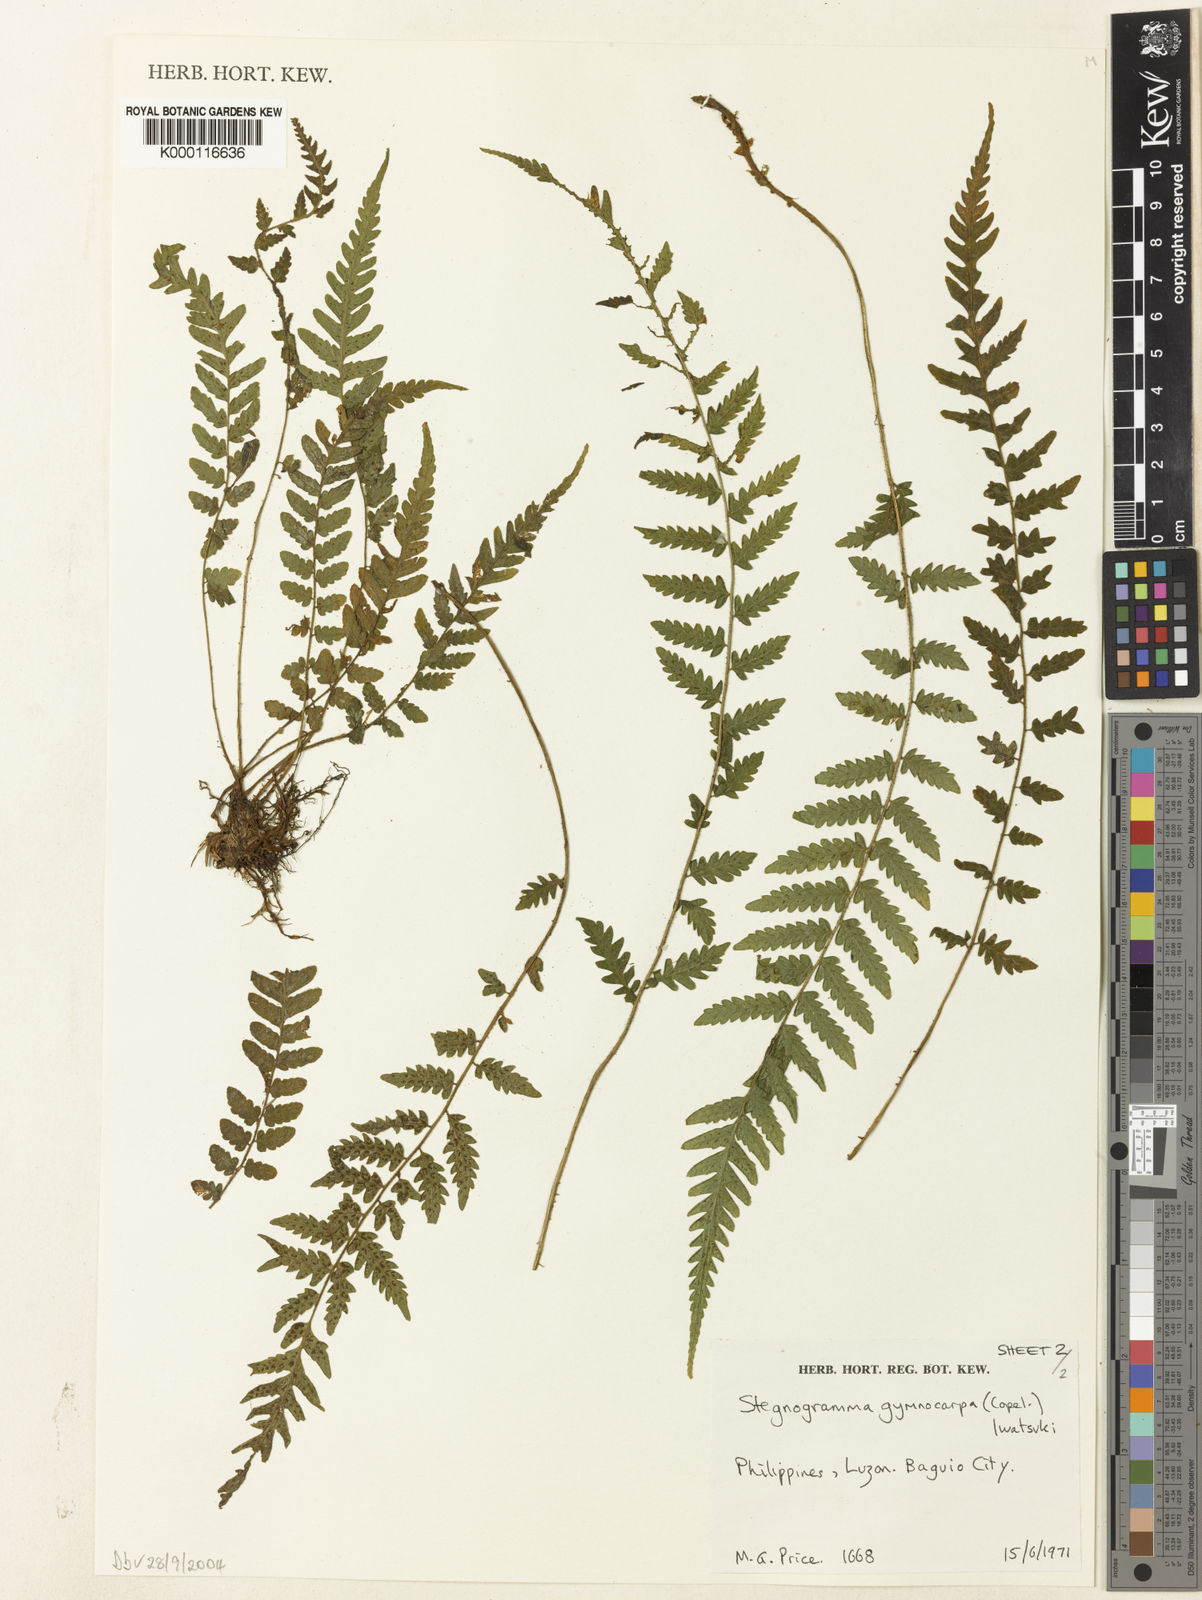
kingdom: Plantae
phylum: Tracheophyta
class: Polypodiopsida
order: Polypodiales
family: Thelypteridaceae
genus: Leptogramma
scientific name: Leptogramma dissitifolia
